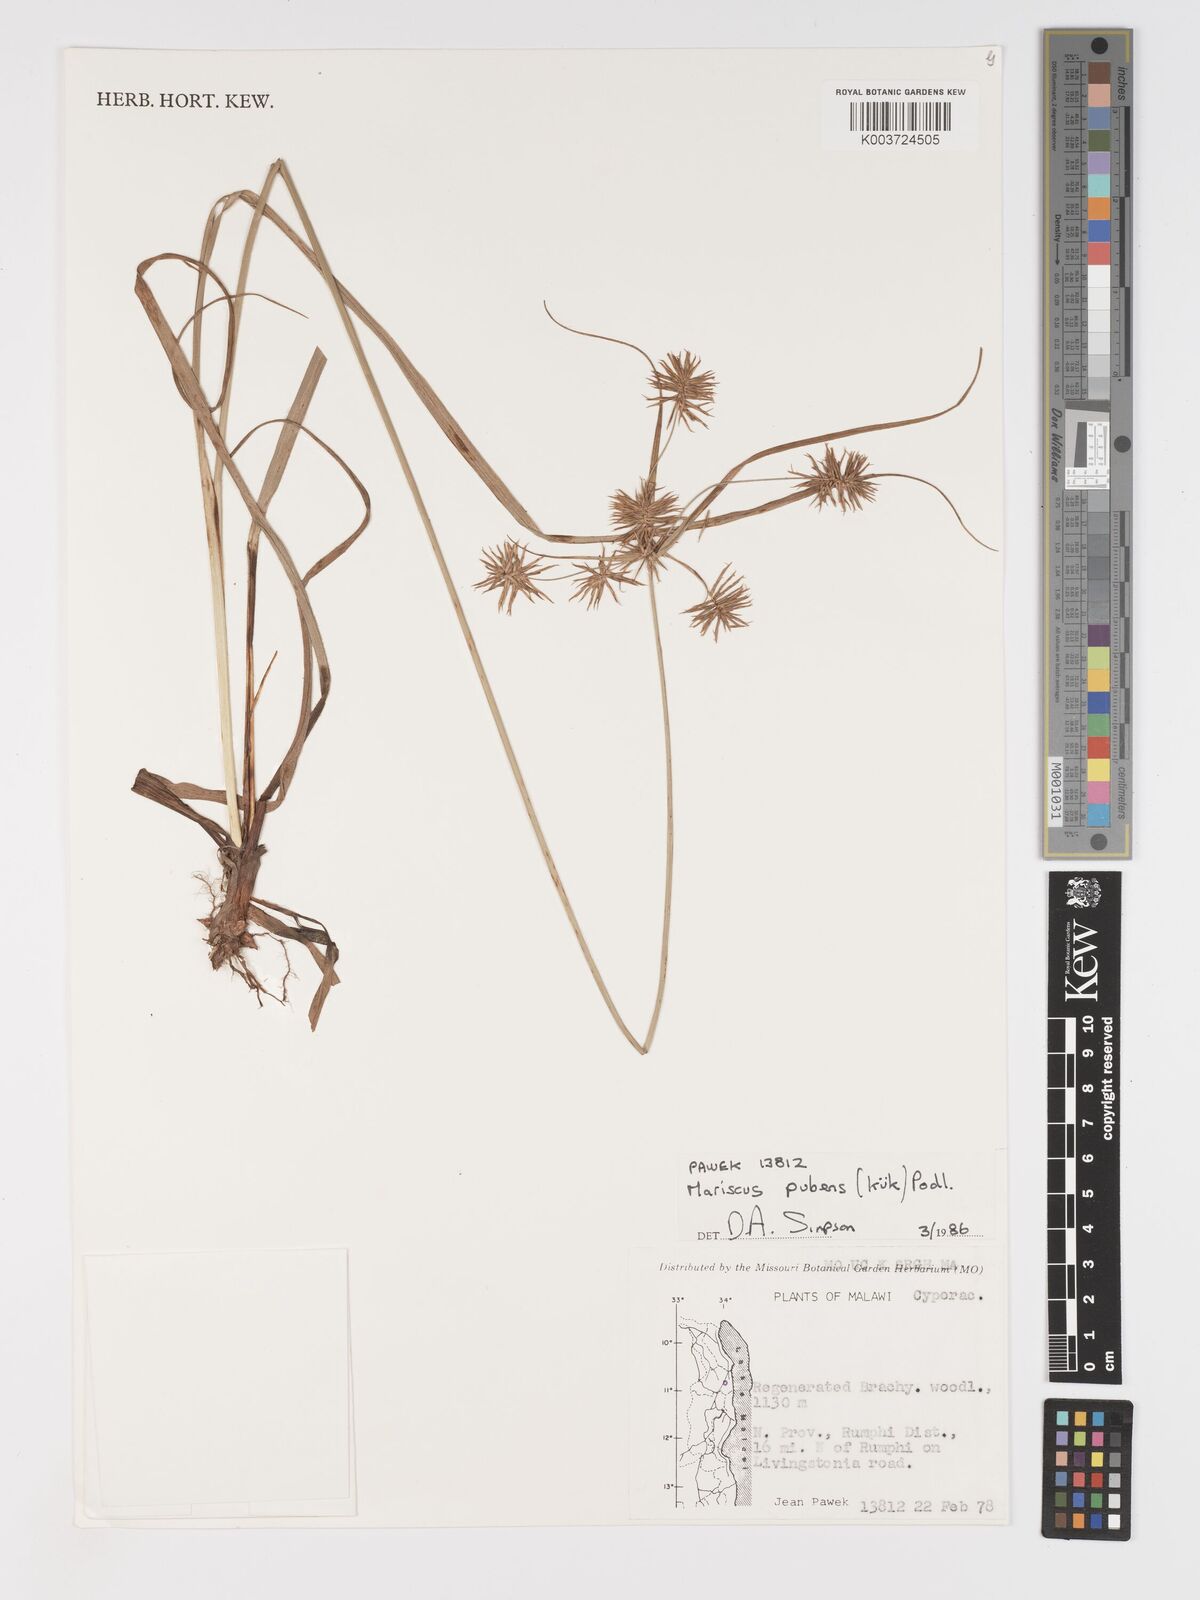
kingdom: Plantae
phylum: Tracheophyta
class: Liliopsida
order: Poales
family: Cyperaceae
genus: Cyperus
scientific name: Cyperus pubens
